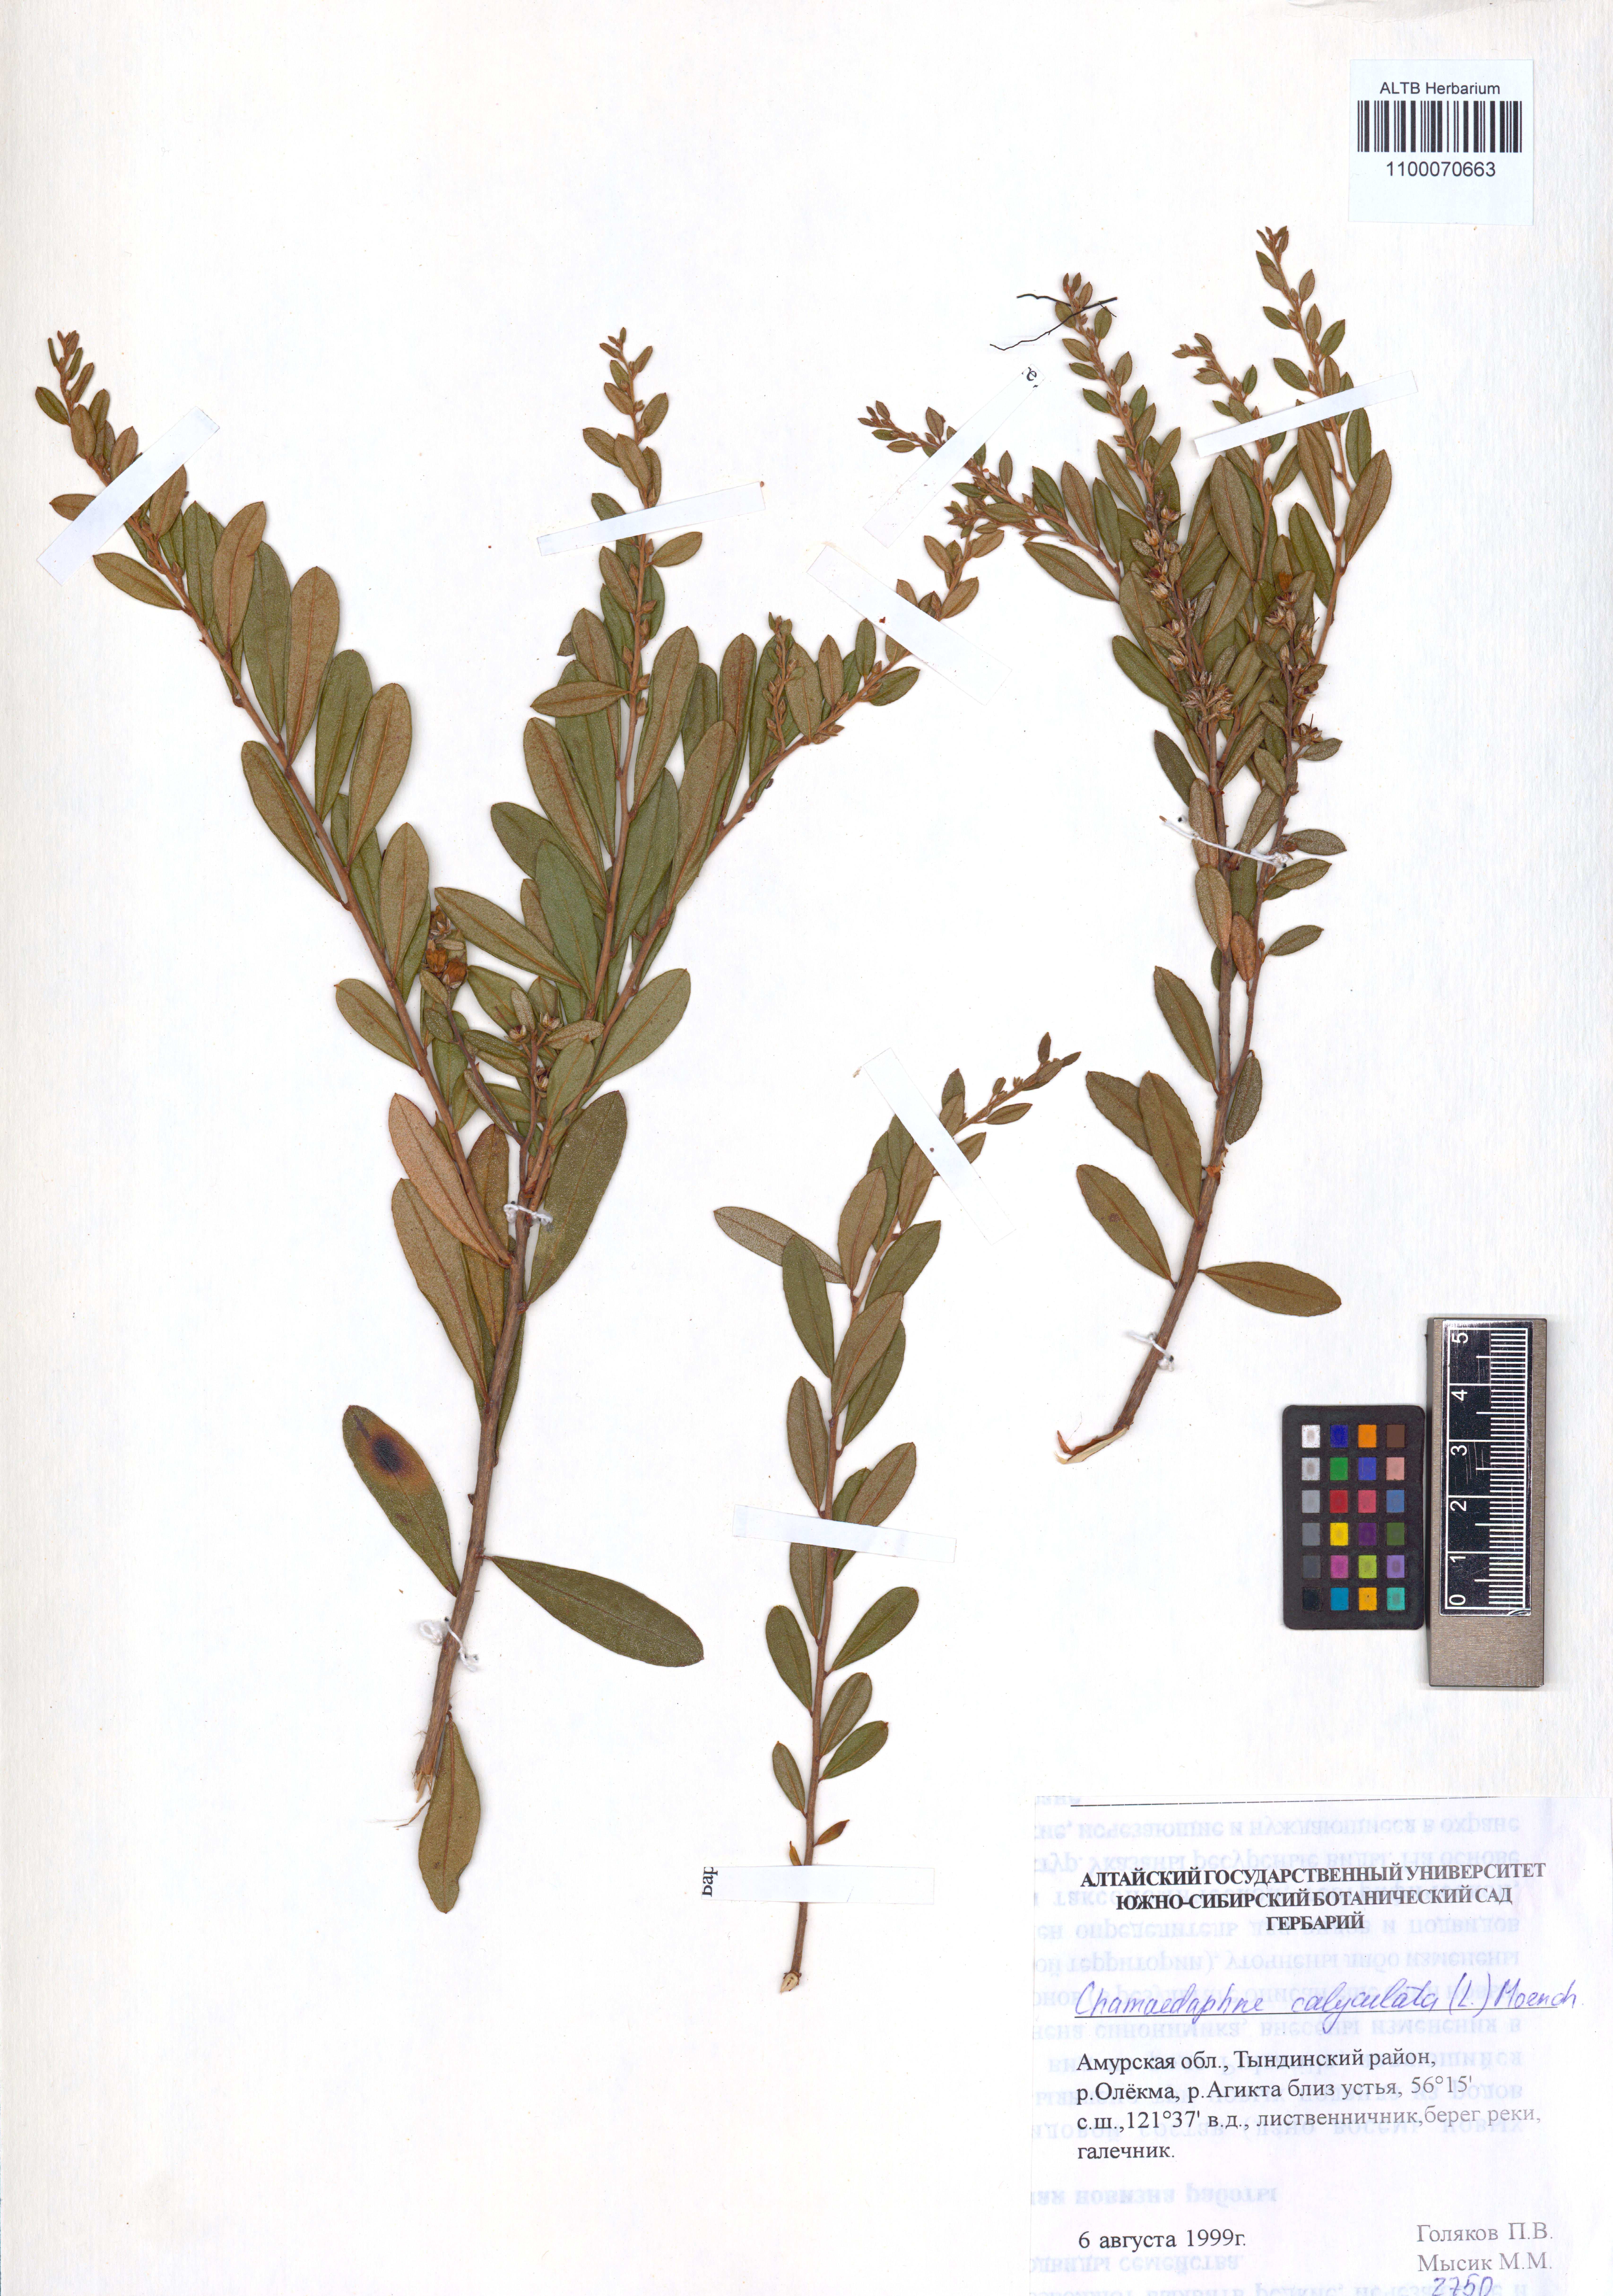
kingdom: Plantae
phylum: Tracheophyta
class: Magnoliopsida
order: Ericales
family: Ericaceae
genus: Chamaedaphne
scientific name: Chamaedaphne calyculata
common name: Leatherleaf
